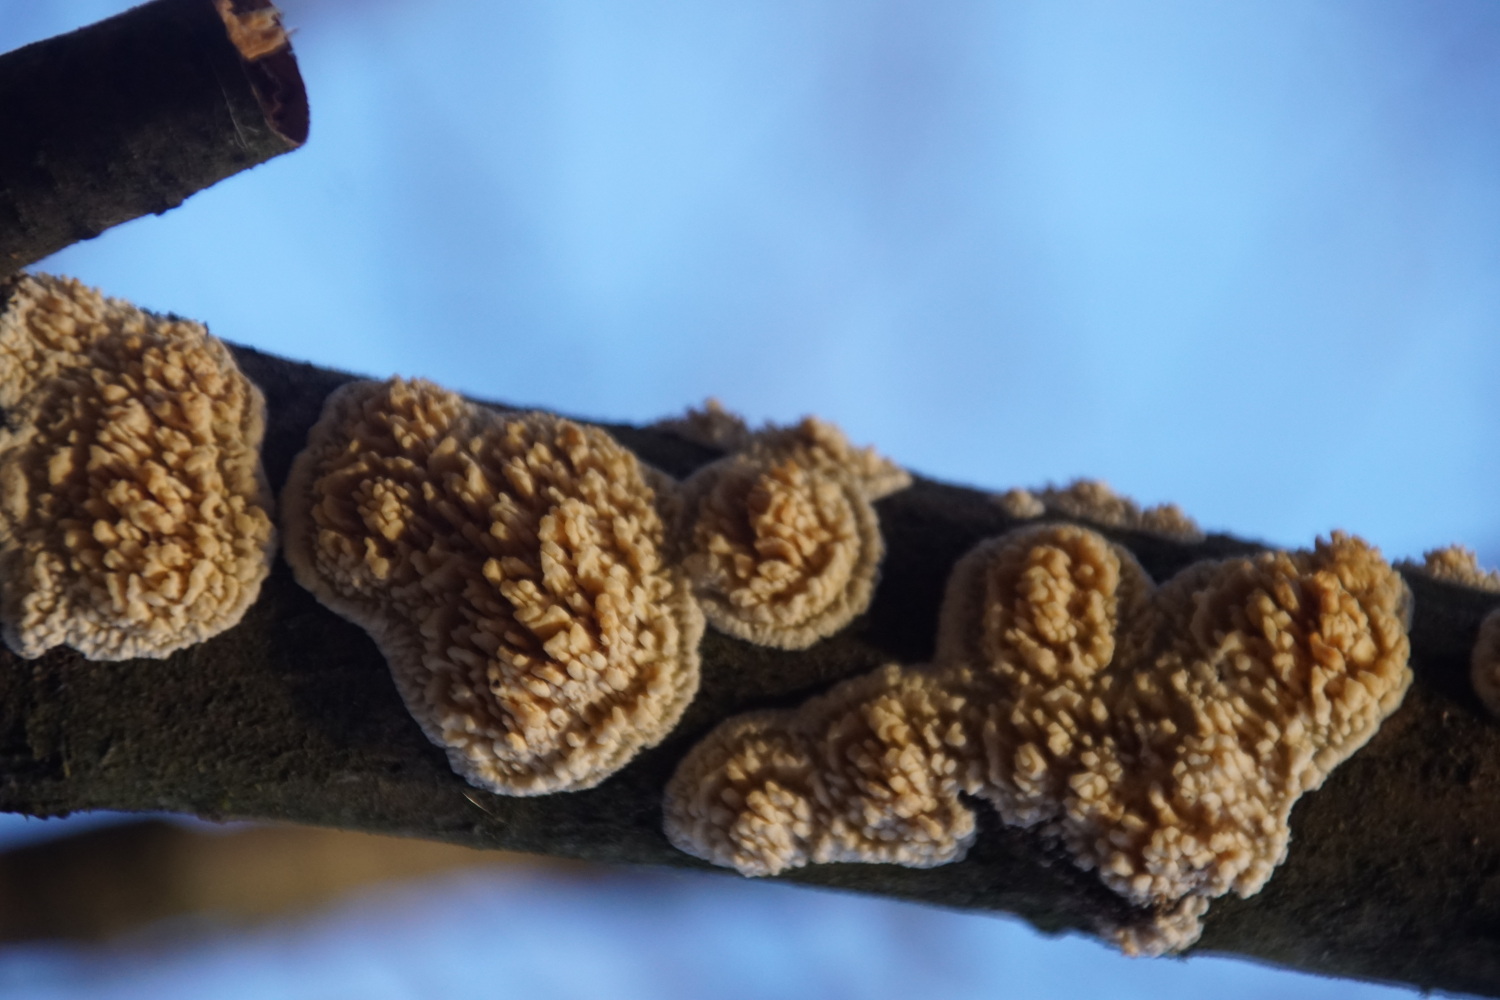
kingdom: Fungi
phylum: Basidiomycota
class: Agaricomycetes
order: Hymenochaetales
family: Schizoporaceae
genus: Xylodon
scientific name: Xylodon radula
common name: grovtandet kalkskind
